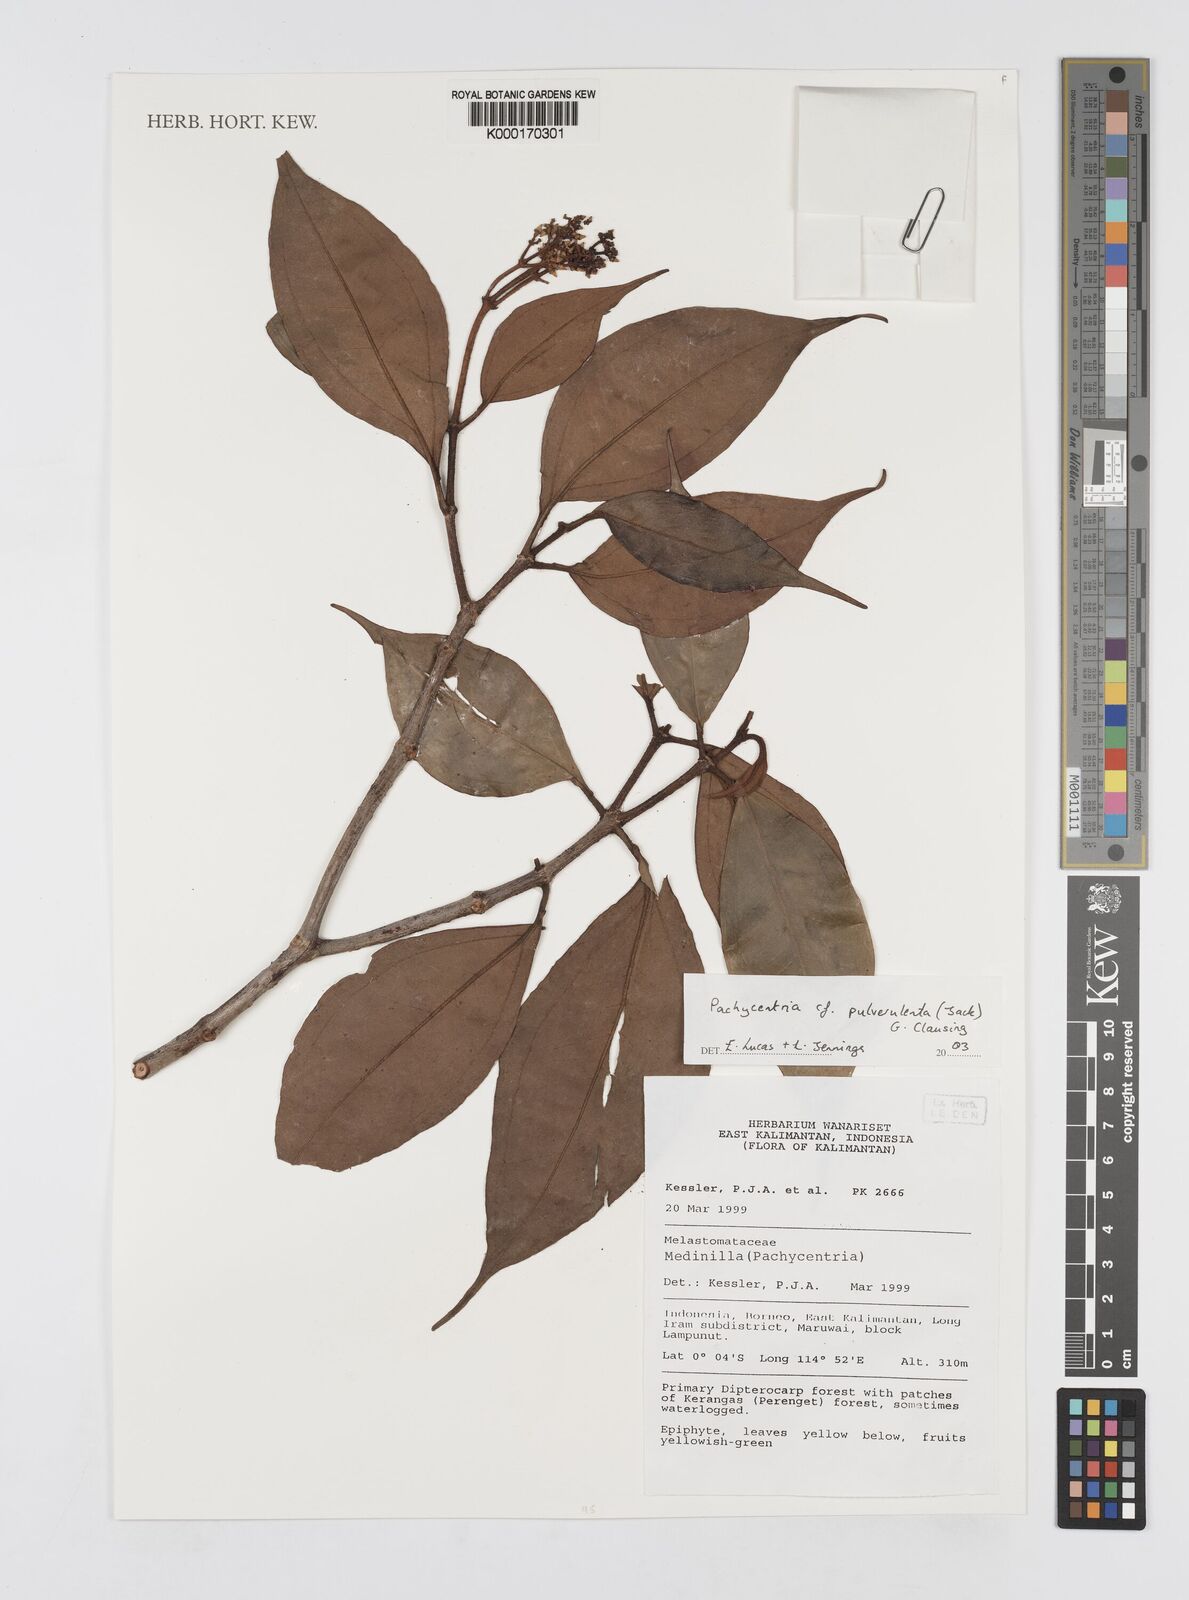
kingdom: Plantae
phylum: Tracheophyta
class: Magnoliopsida
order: Myrtales
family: Melastomataceae
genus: Pachycentria
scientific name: Pachycentria pulverulenta
